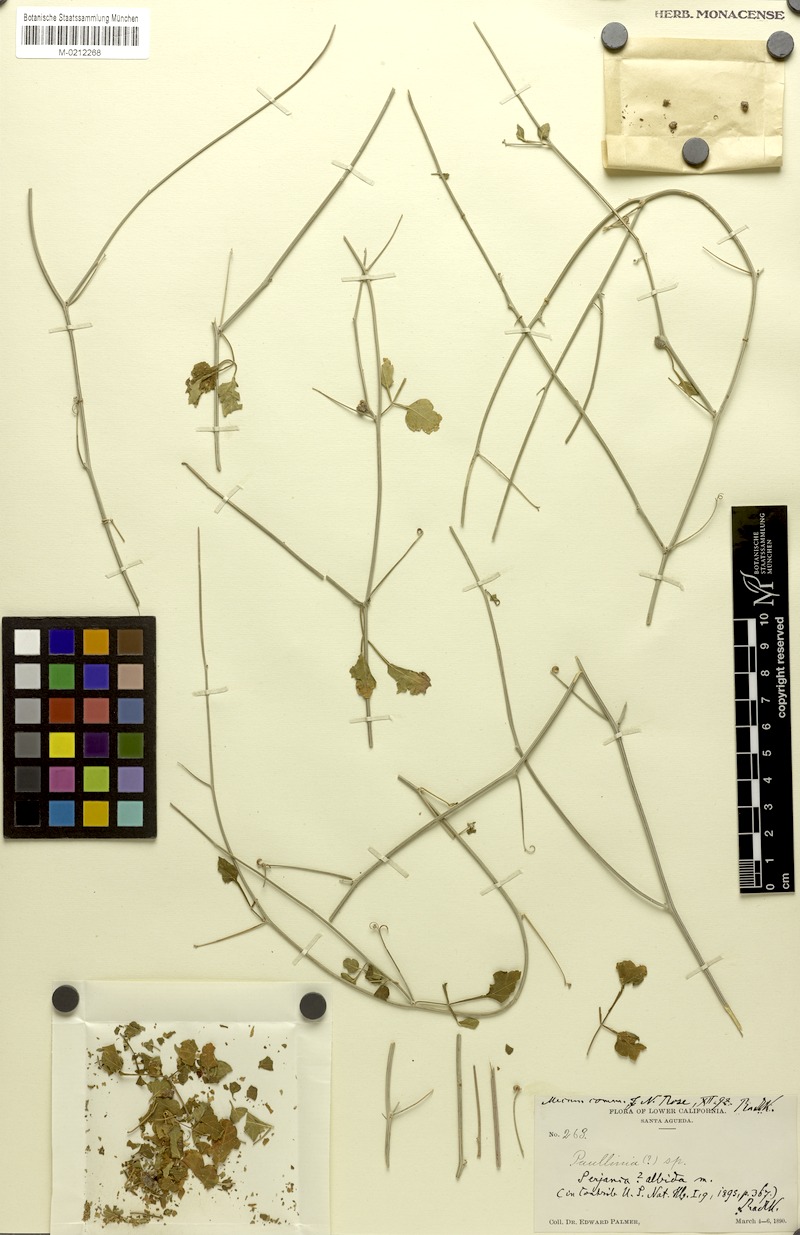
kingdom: Plantae
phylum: Tracheophyta
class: Magnoliopsida
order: Sapindales
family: Sapindaceae
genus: Serjania
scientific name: Serjania albida
